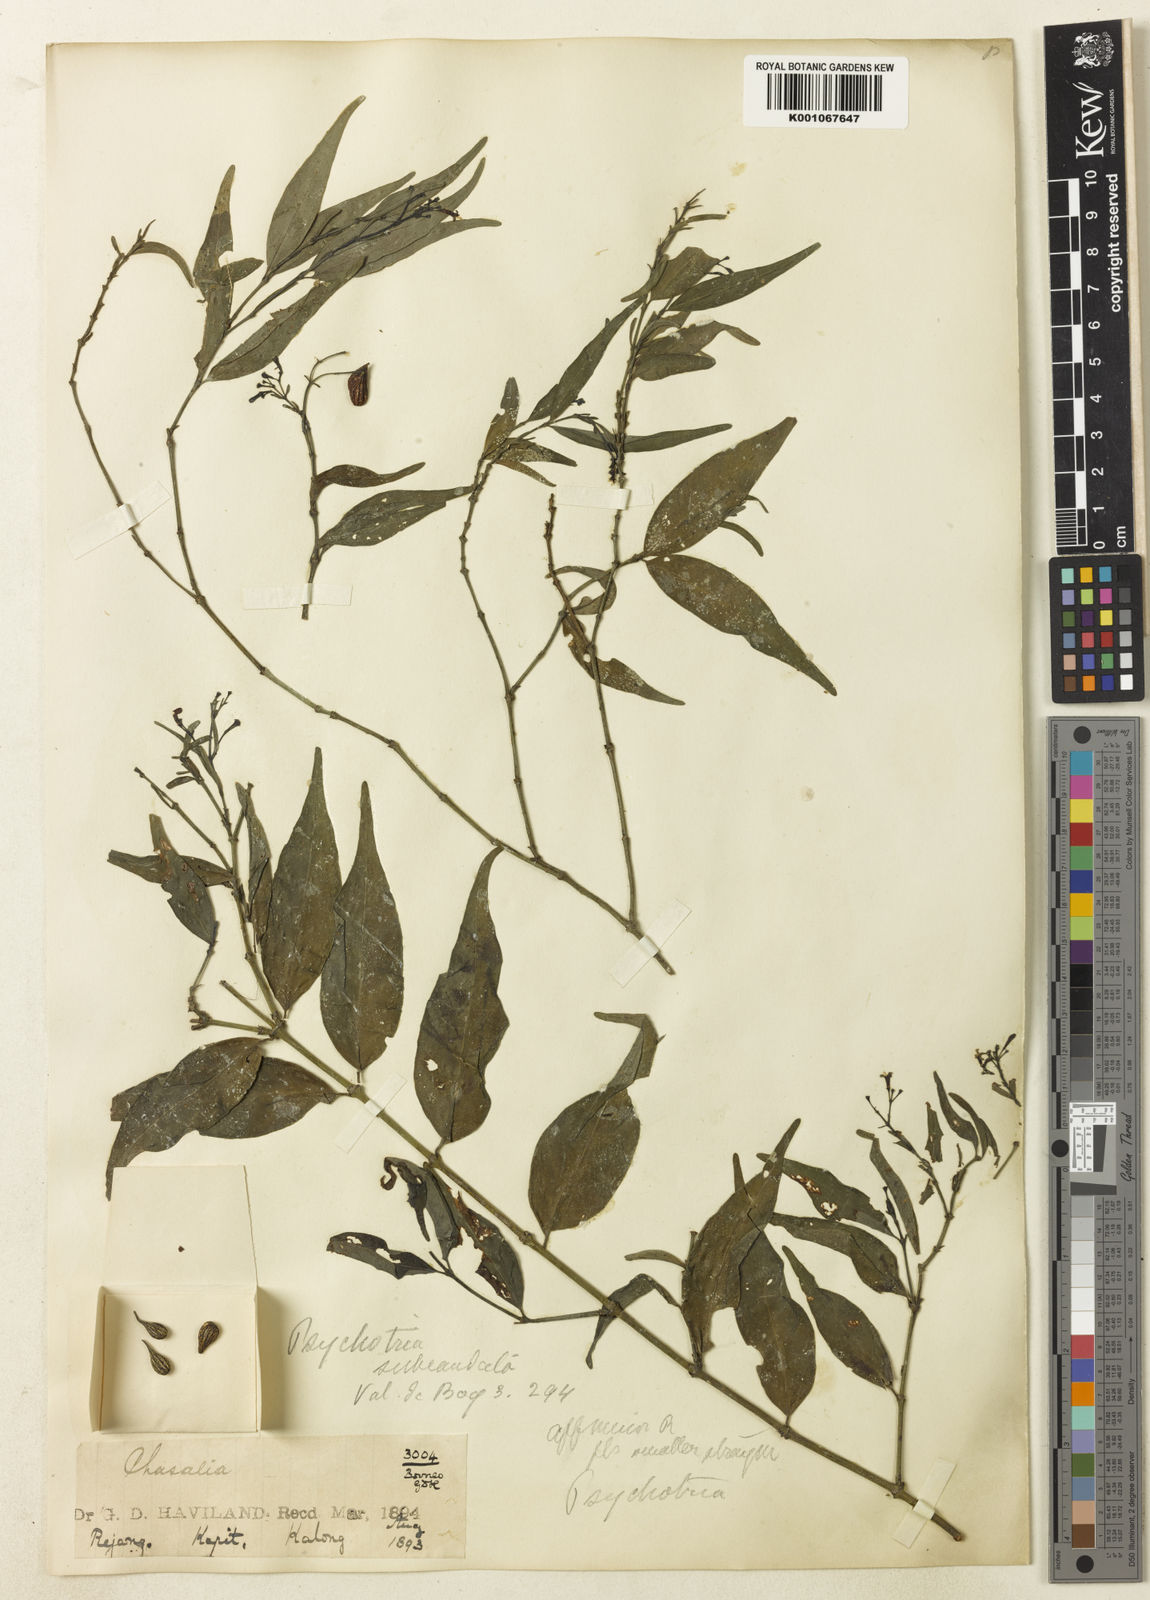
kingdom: Plantae
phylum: Tracheophyta
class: Magnoliopsida
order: Gentianales
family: Rubiaceae
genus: Psychotria
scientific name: Psychotria subcaudata
